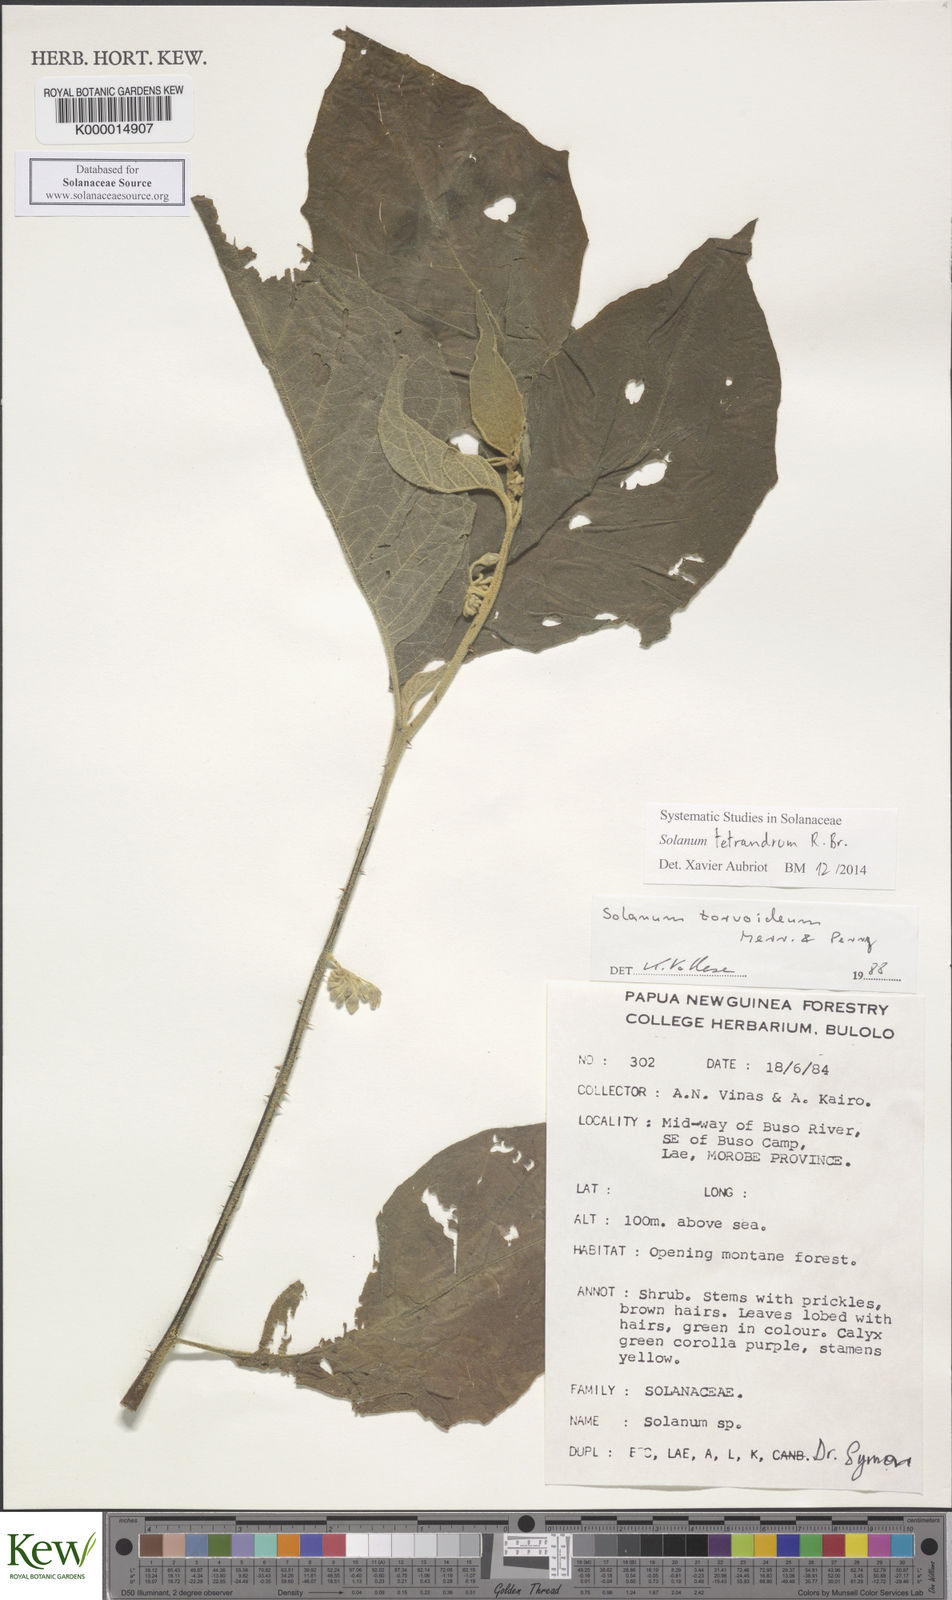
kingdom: Plantae
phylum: Tracheophyta
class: Magnoliopsida
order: Solanales
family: Solanaceae
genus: Solanum
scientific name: Solanum tetrandrum
